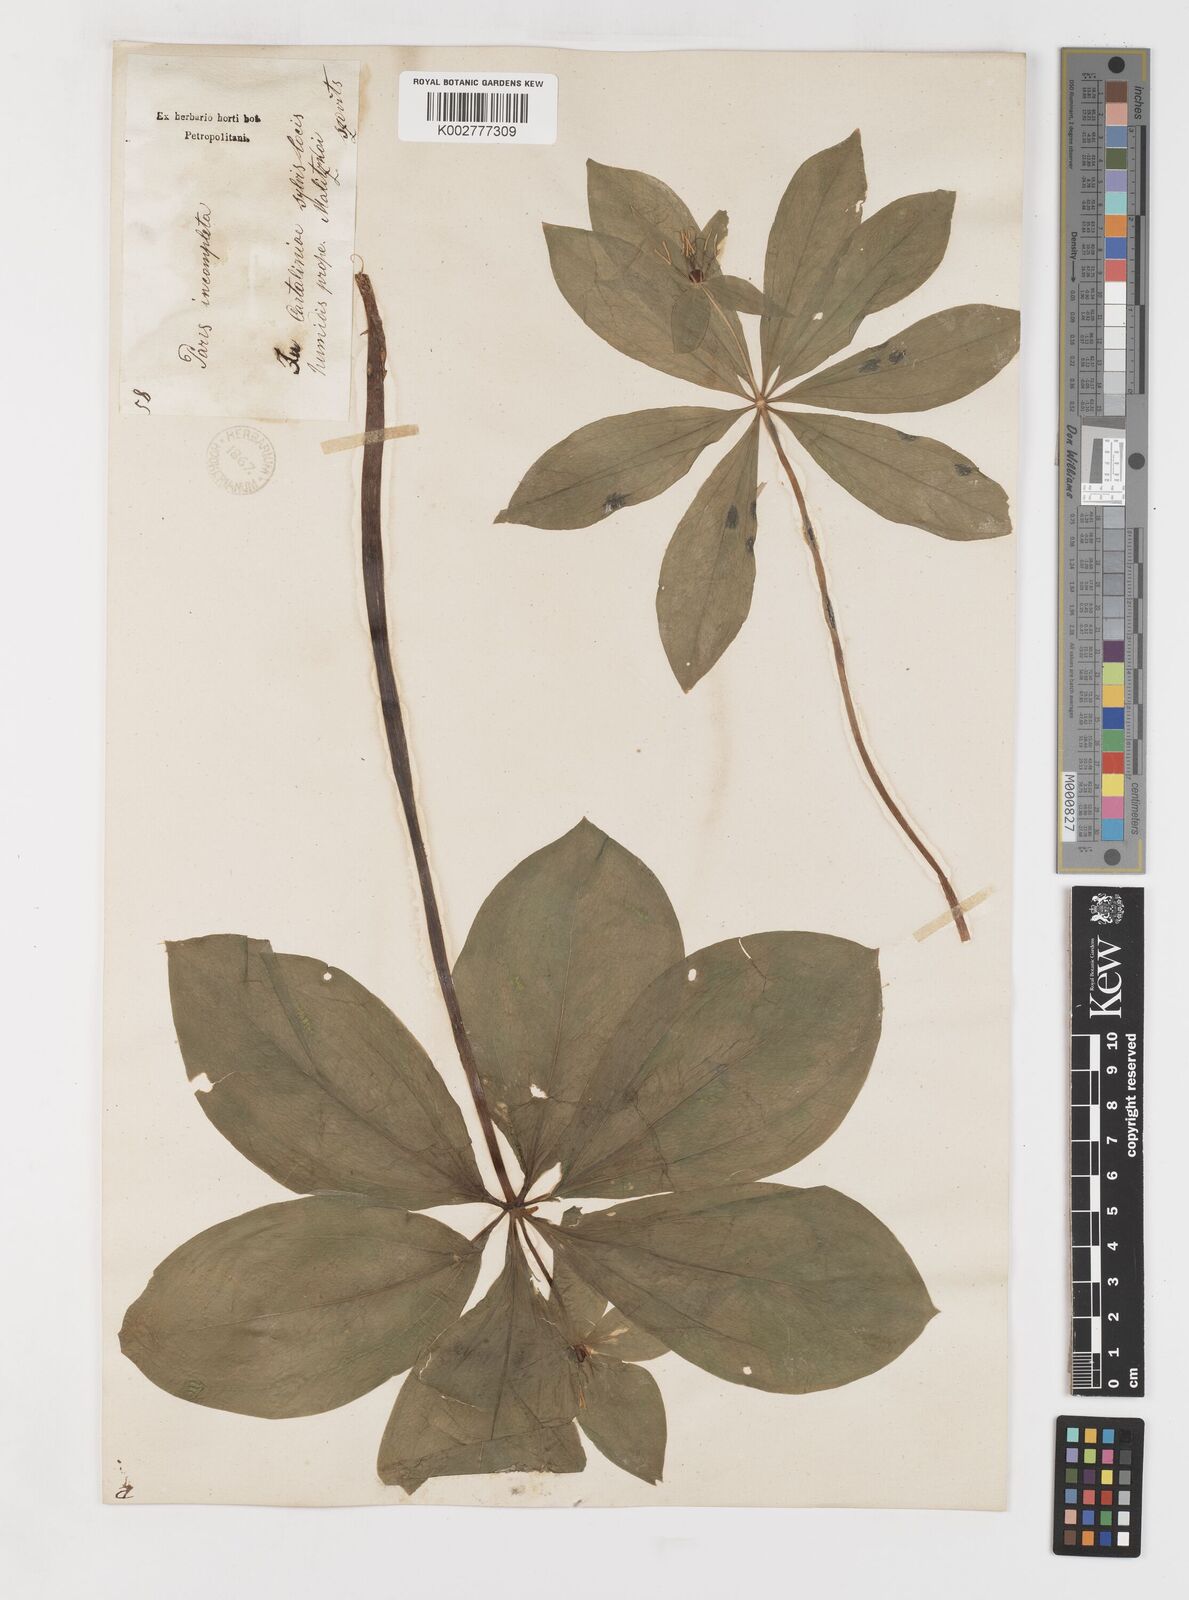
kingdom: Plantae
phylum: Tracheophyta
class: Liliopsida
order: Liliales
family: Melanthiaceae
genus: Paris
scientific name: Paris incompleta
